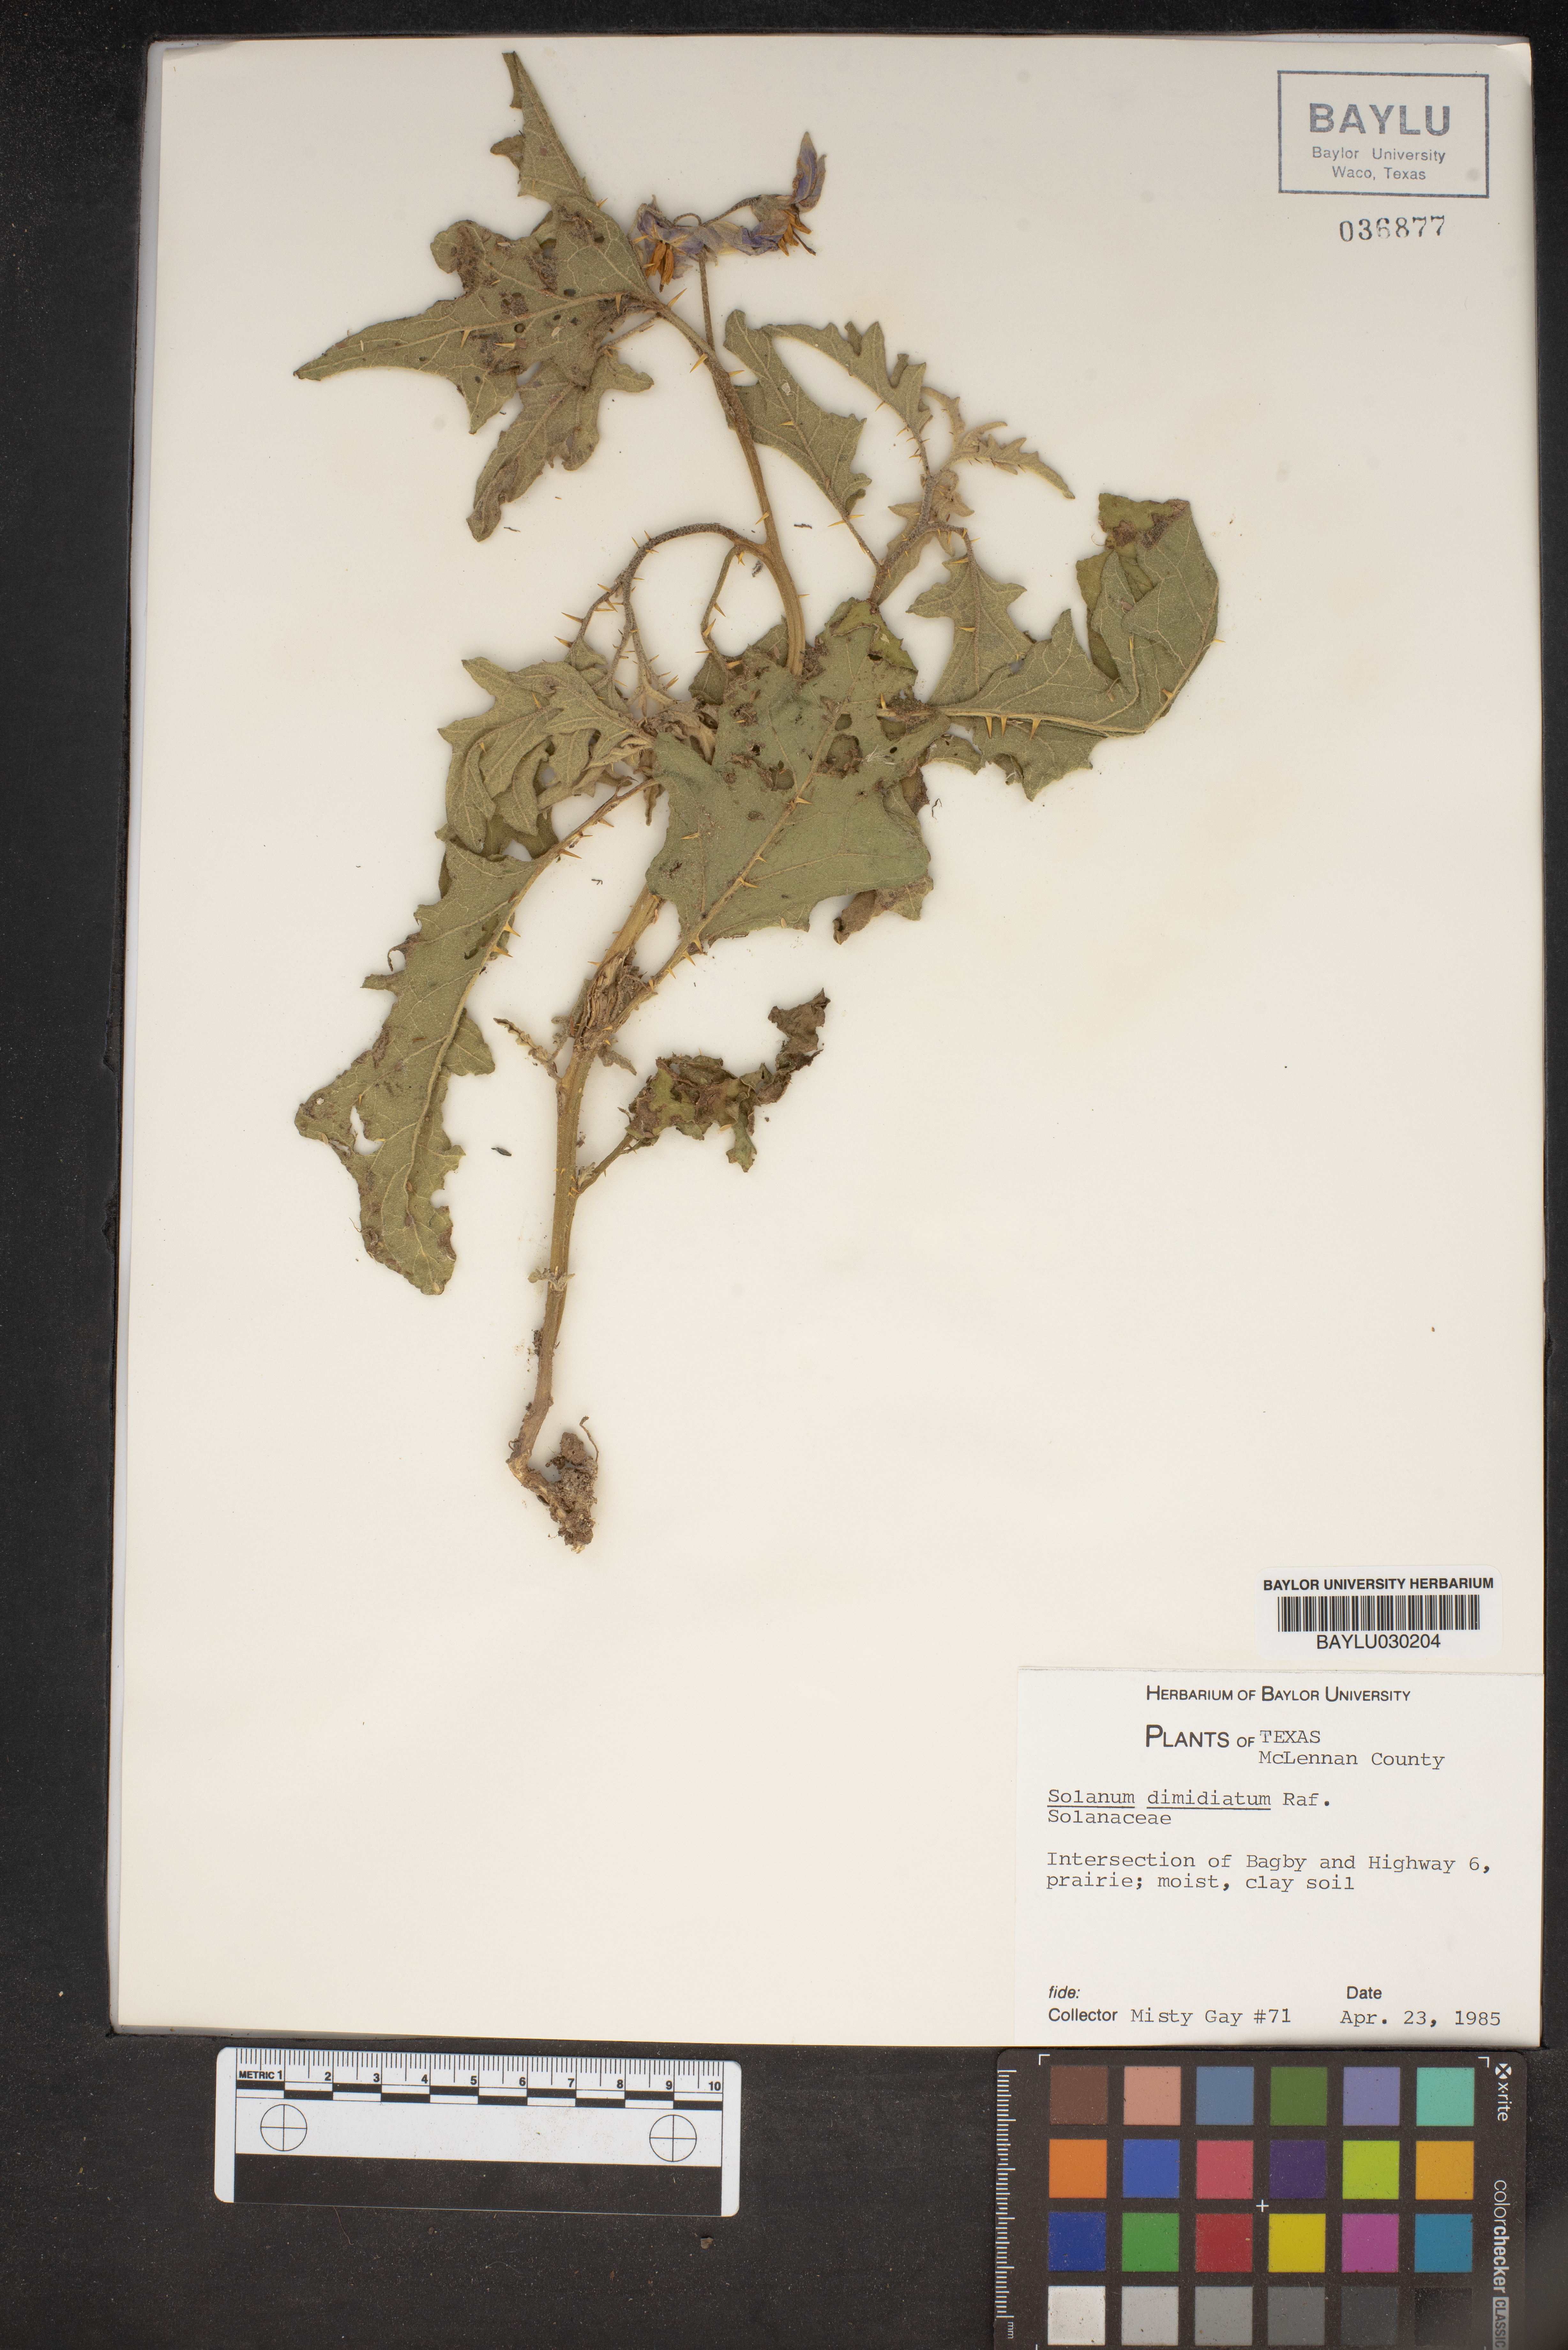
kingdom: Plantae
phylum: Tracheophyta
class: Magnoliopsida
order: Solanales
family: Solanaceae
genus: Solanum
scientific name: Solanum dimidiatum
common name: Carolina horse-nettle
